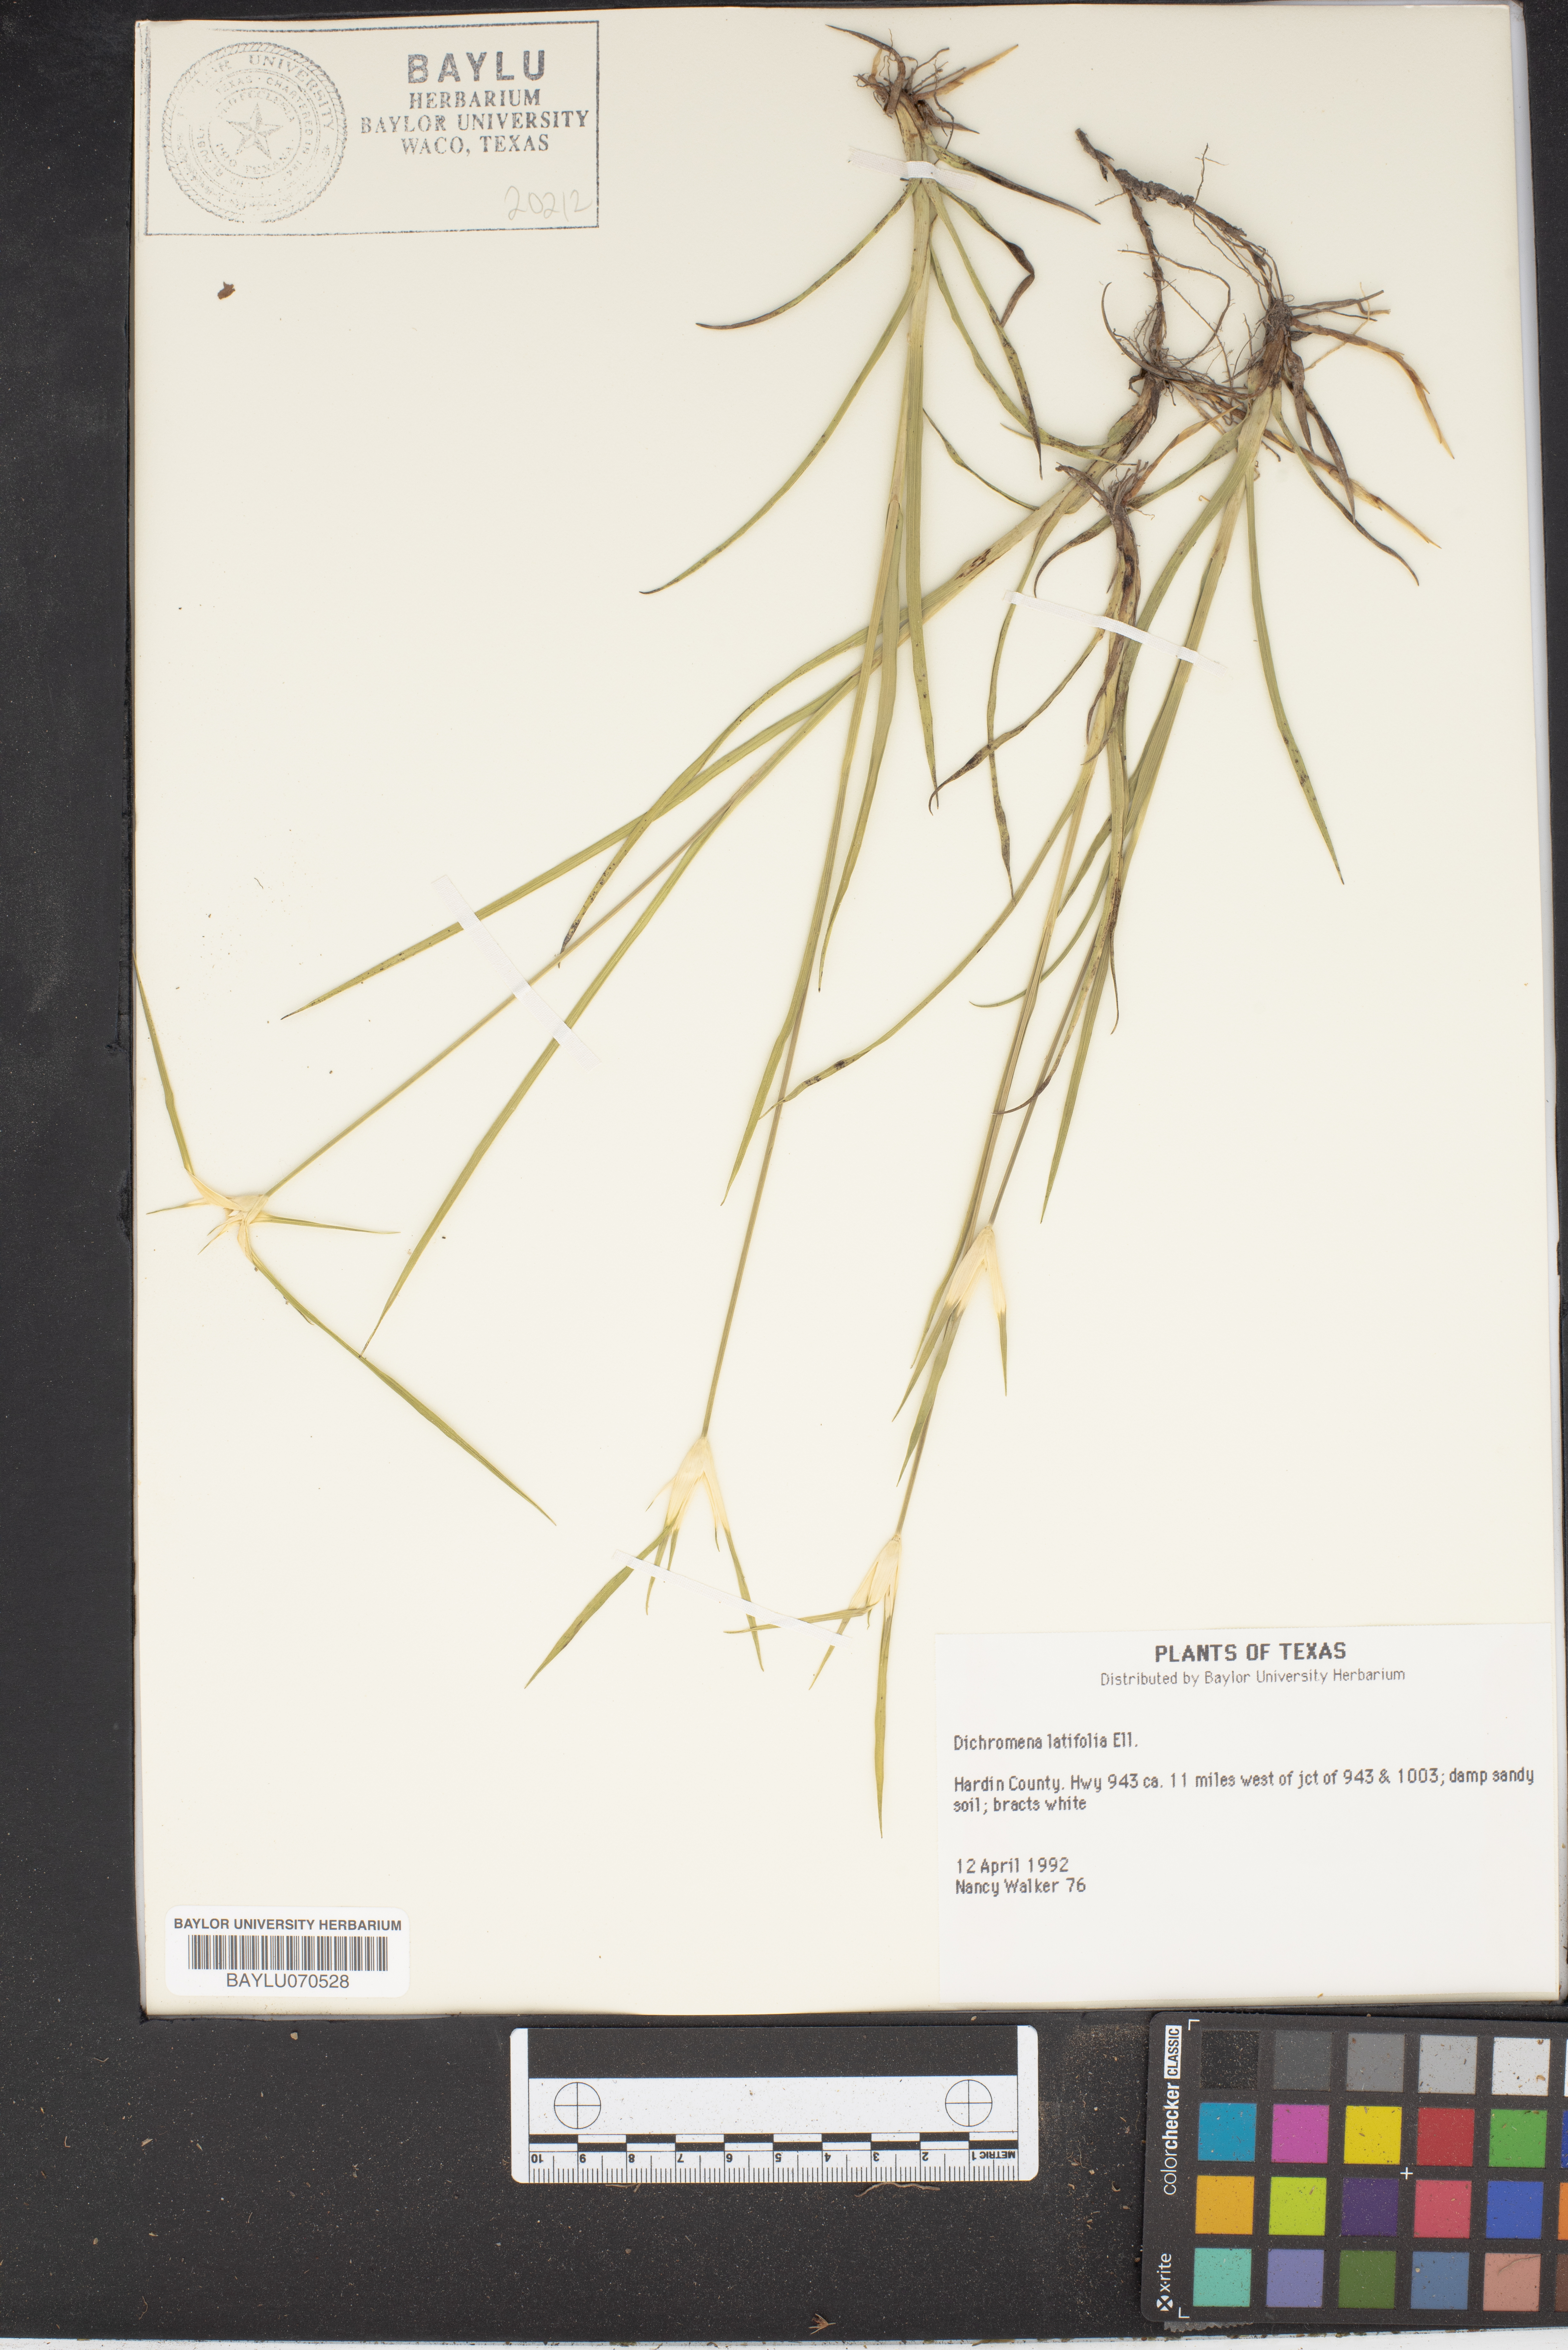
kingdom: Plantae
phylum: Tracheophyta
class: Liliopsida
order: Poales
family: Cyperaceae
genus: Rhynchospora
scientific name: Rhynchospora latifolia
